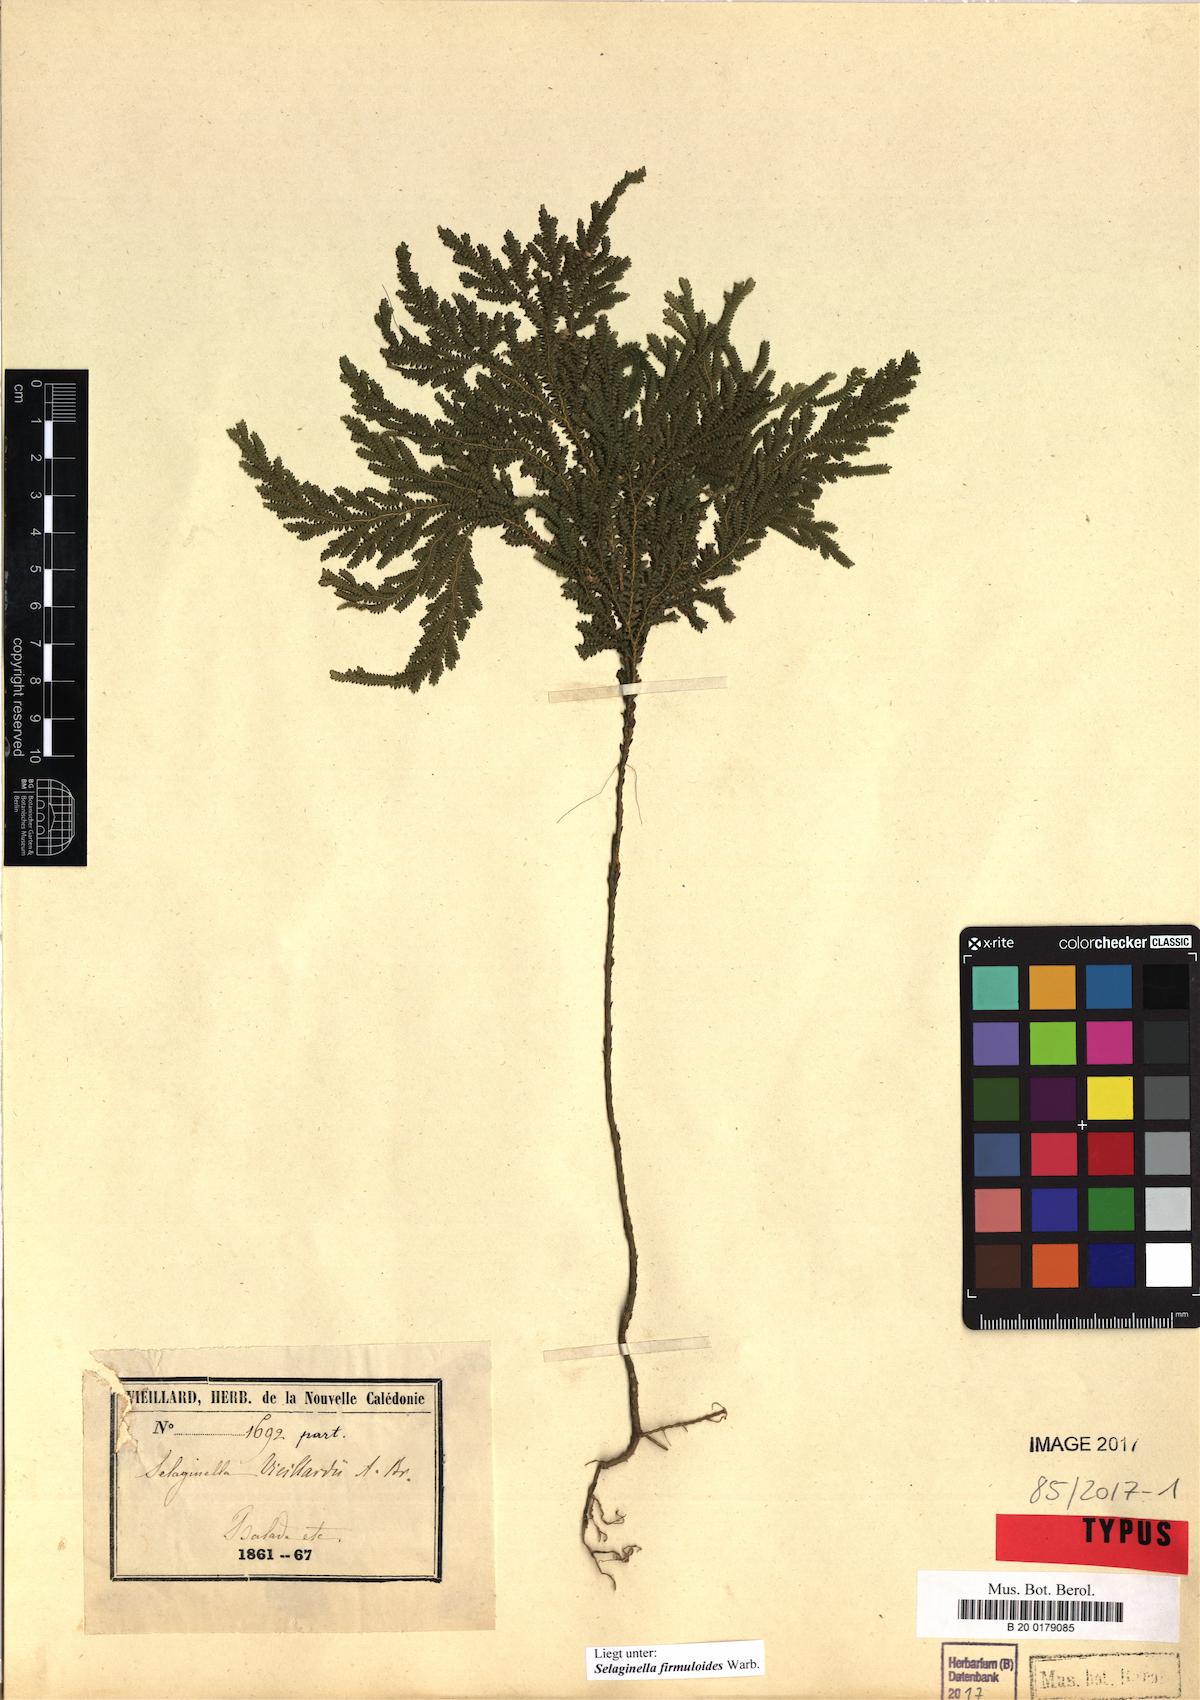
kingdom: Plantae
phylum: Tracheophyta
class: Lycopodiopsida
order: Selaginellales
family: Selaginellaceae
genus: Selaginella
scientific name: Selaginella firmuloides
